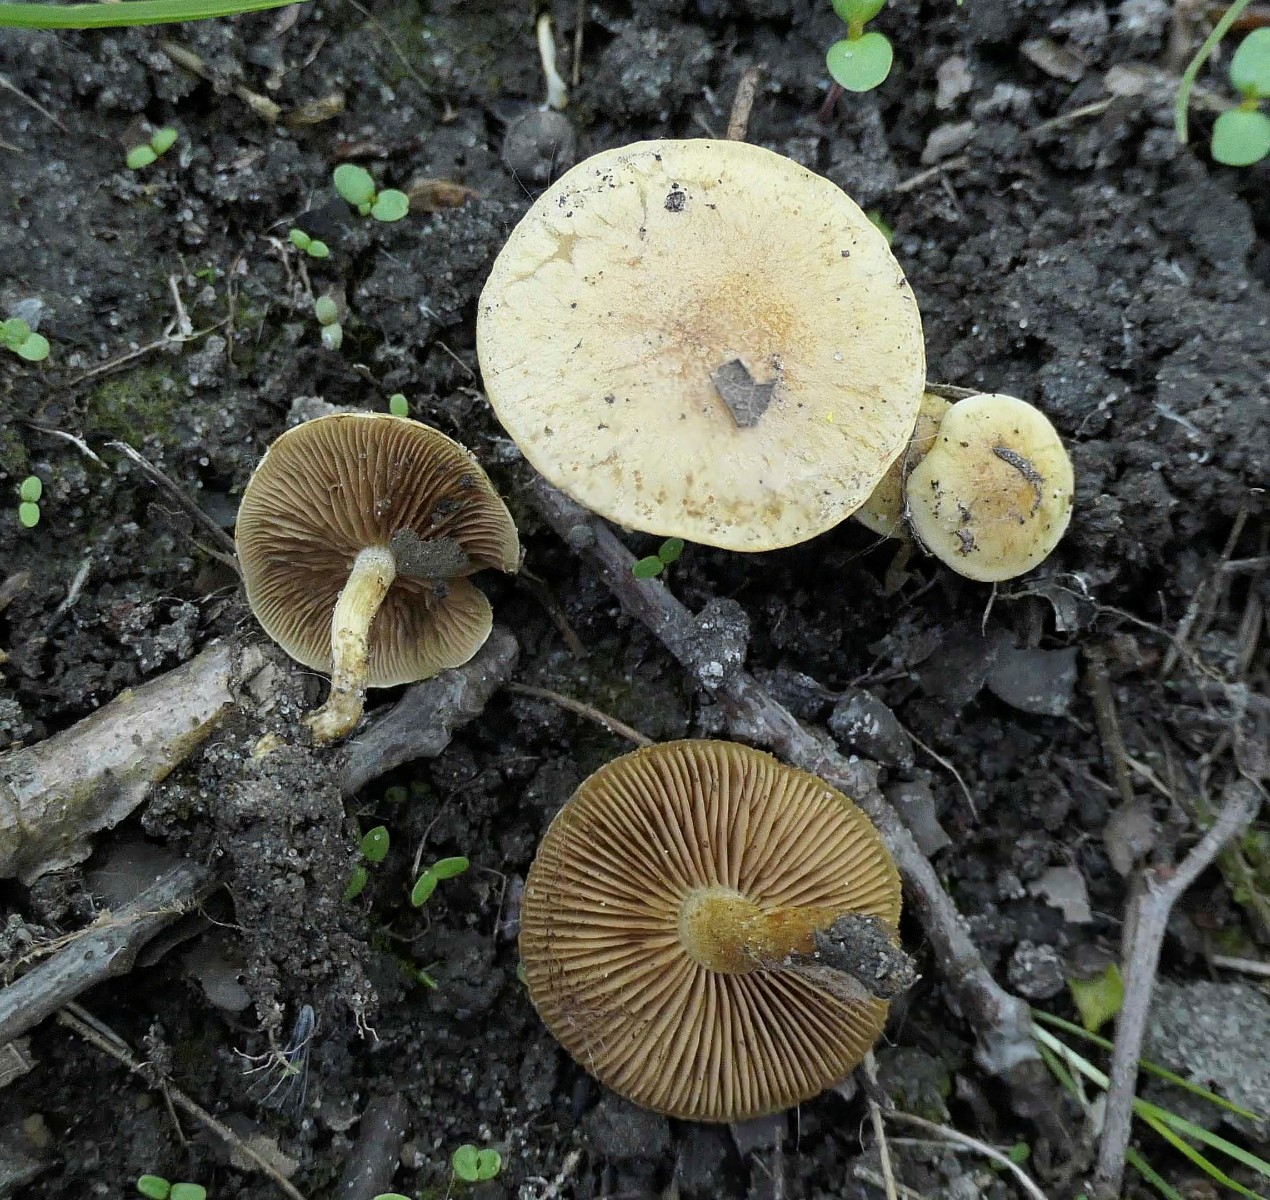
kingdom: Fungi
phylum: Basidiomycota
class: Agaricomycetes
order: Agaricales
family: Strophariaceae
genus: Pholiota
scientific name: Pholiota conissans
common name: pile-skælhat
